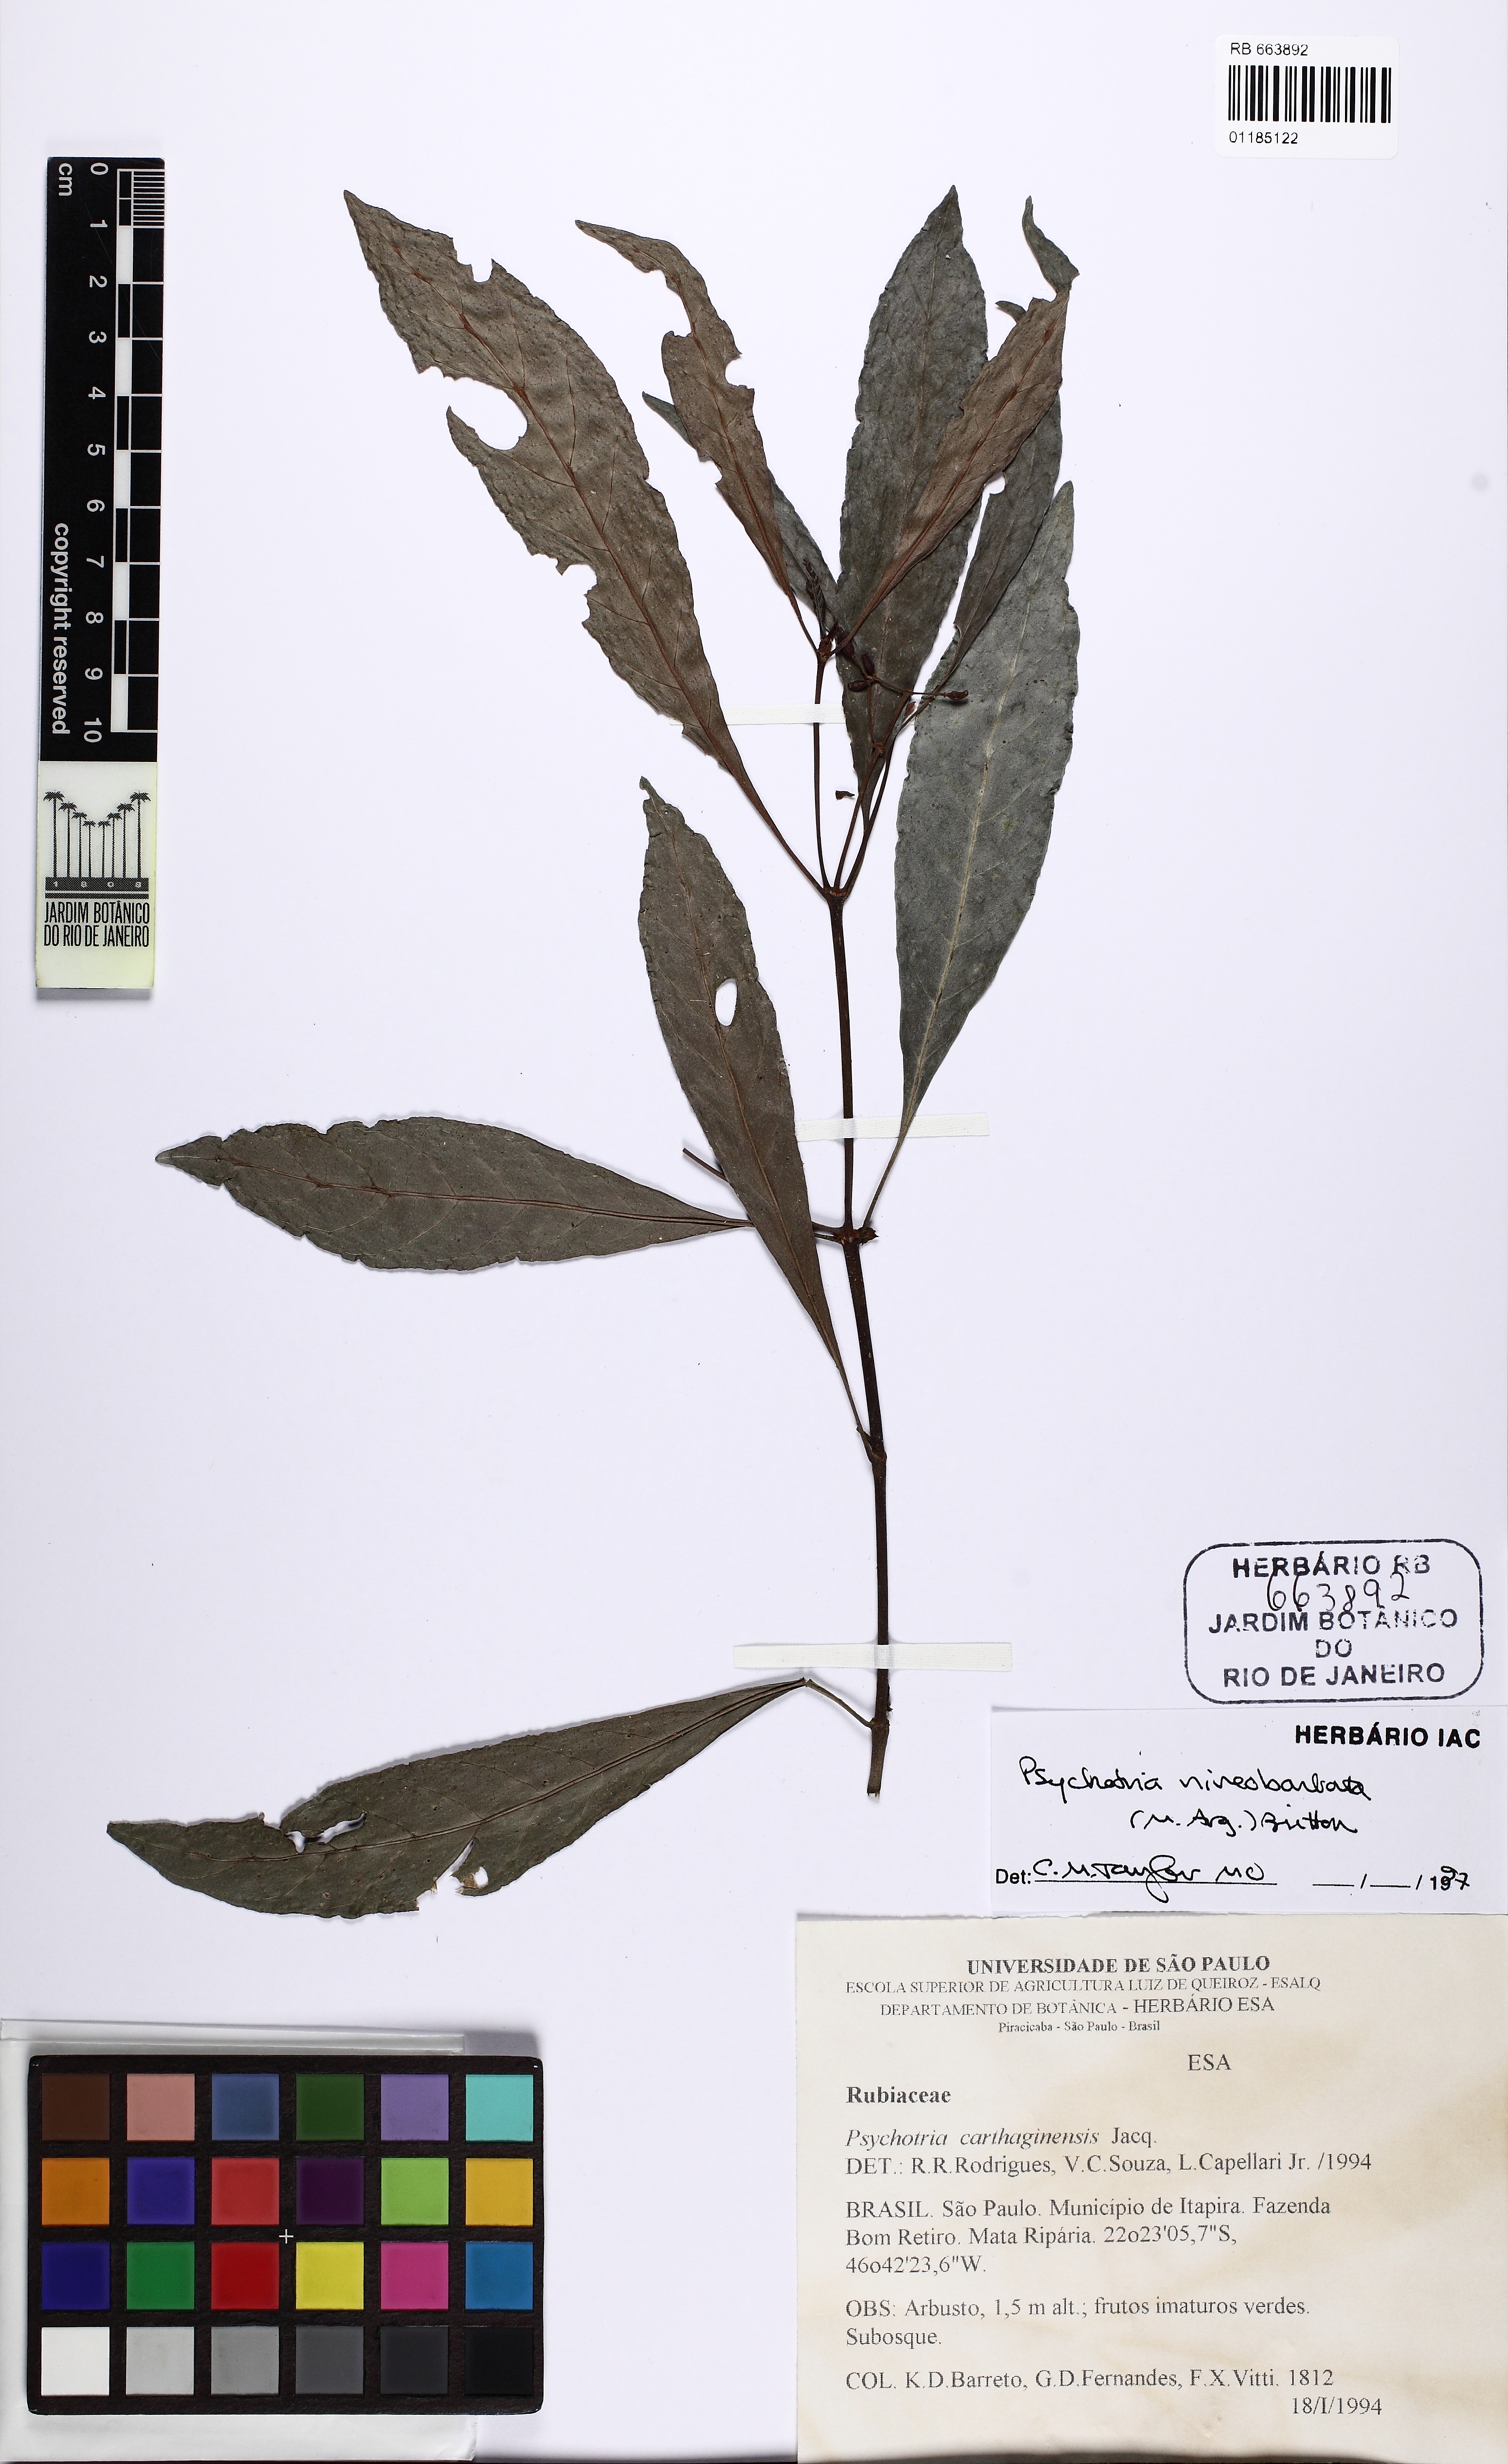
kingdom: Plantae
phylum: Tracheophyta
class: Magnoliopsida
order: Gentianales
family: Rubiaceae
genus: Psychotria
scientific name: Psychotria niveobarbata
